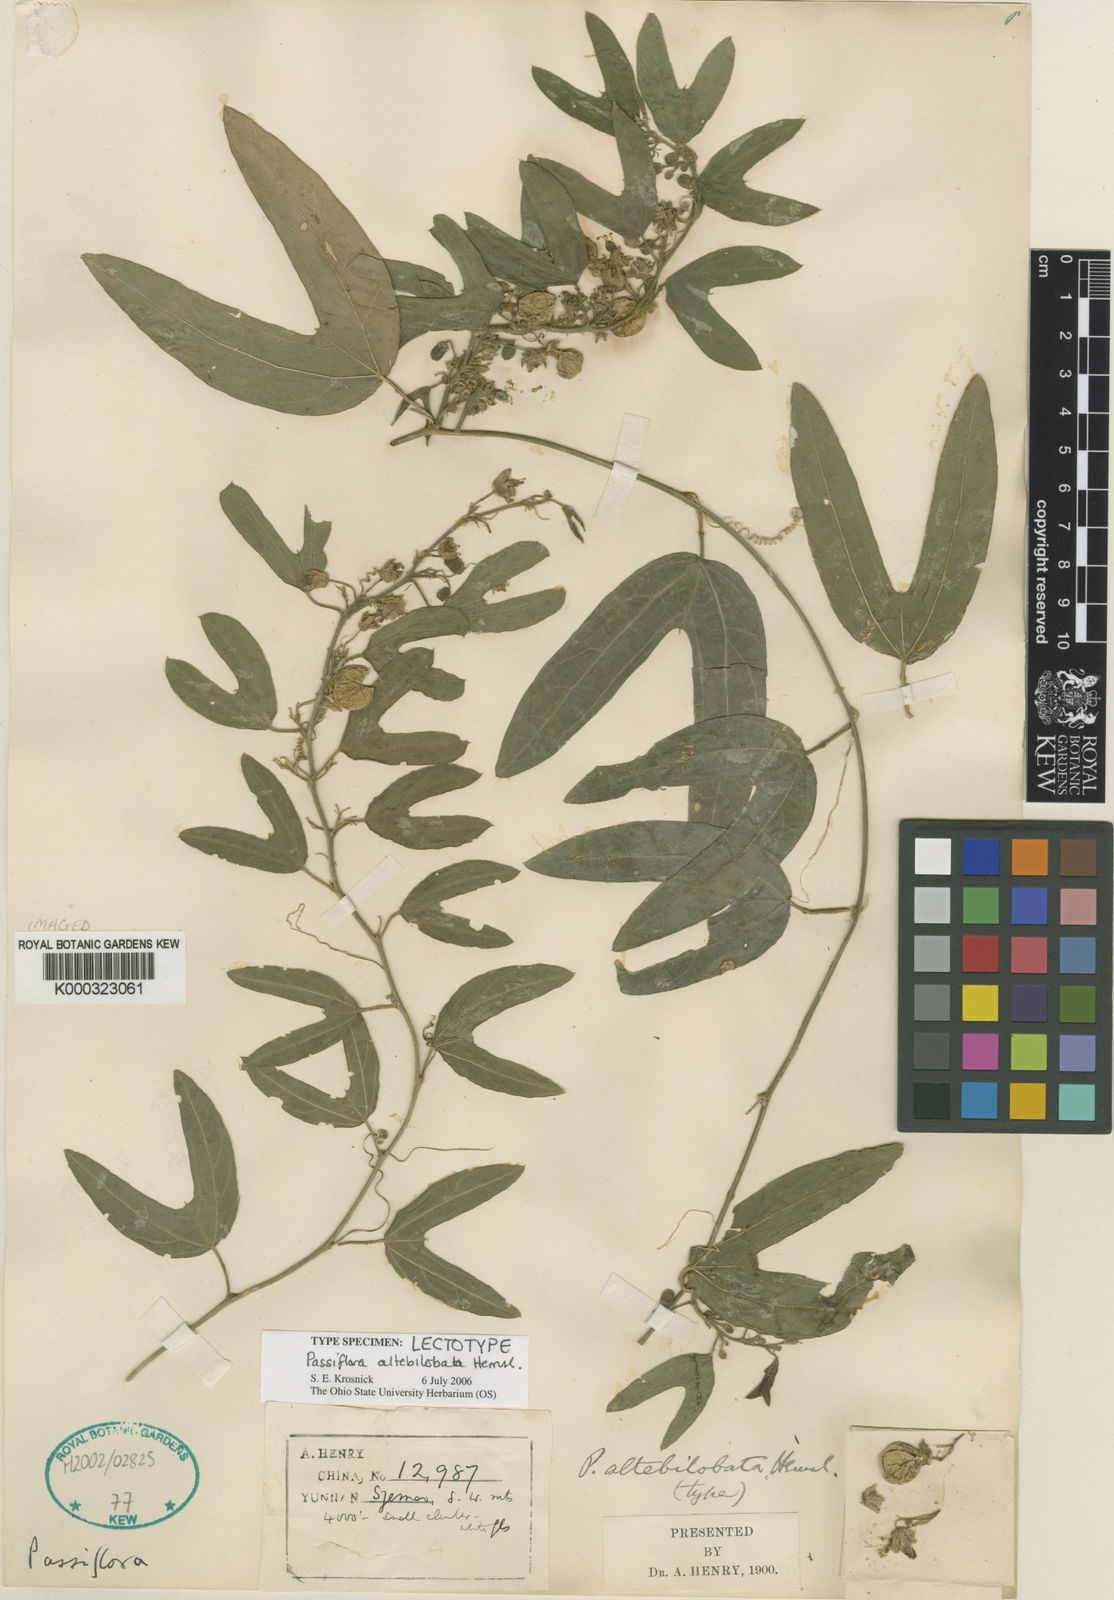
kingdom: Plantae
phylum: Tracheophyta
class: Magnoliopsida
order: Malpighiales
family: Passifloraceae
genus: Passiflora
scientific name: Passiflora altebilobata
